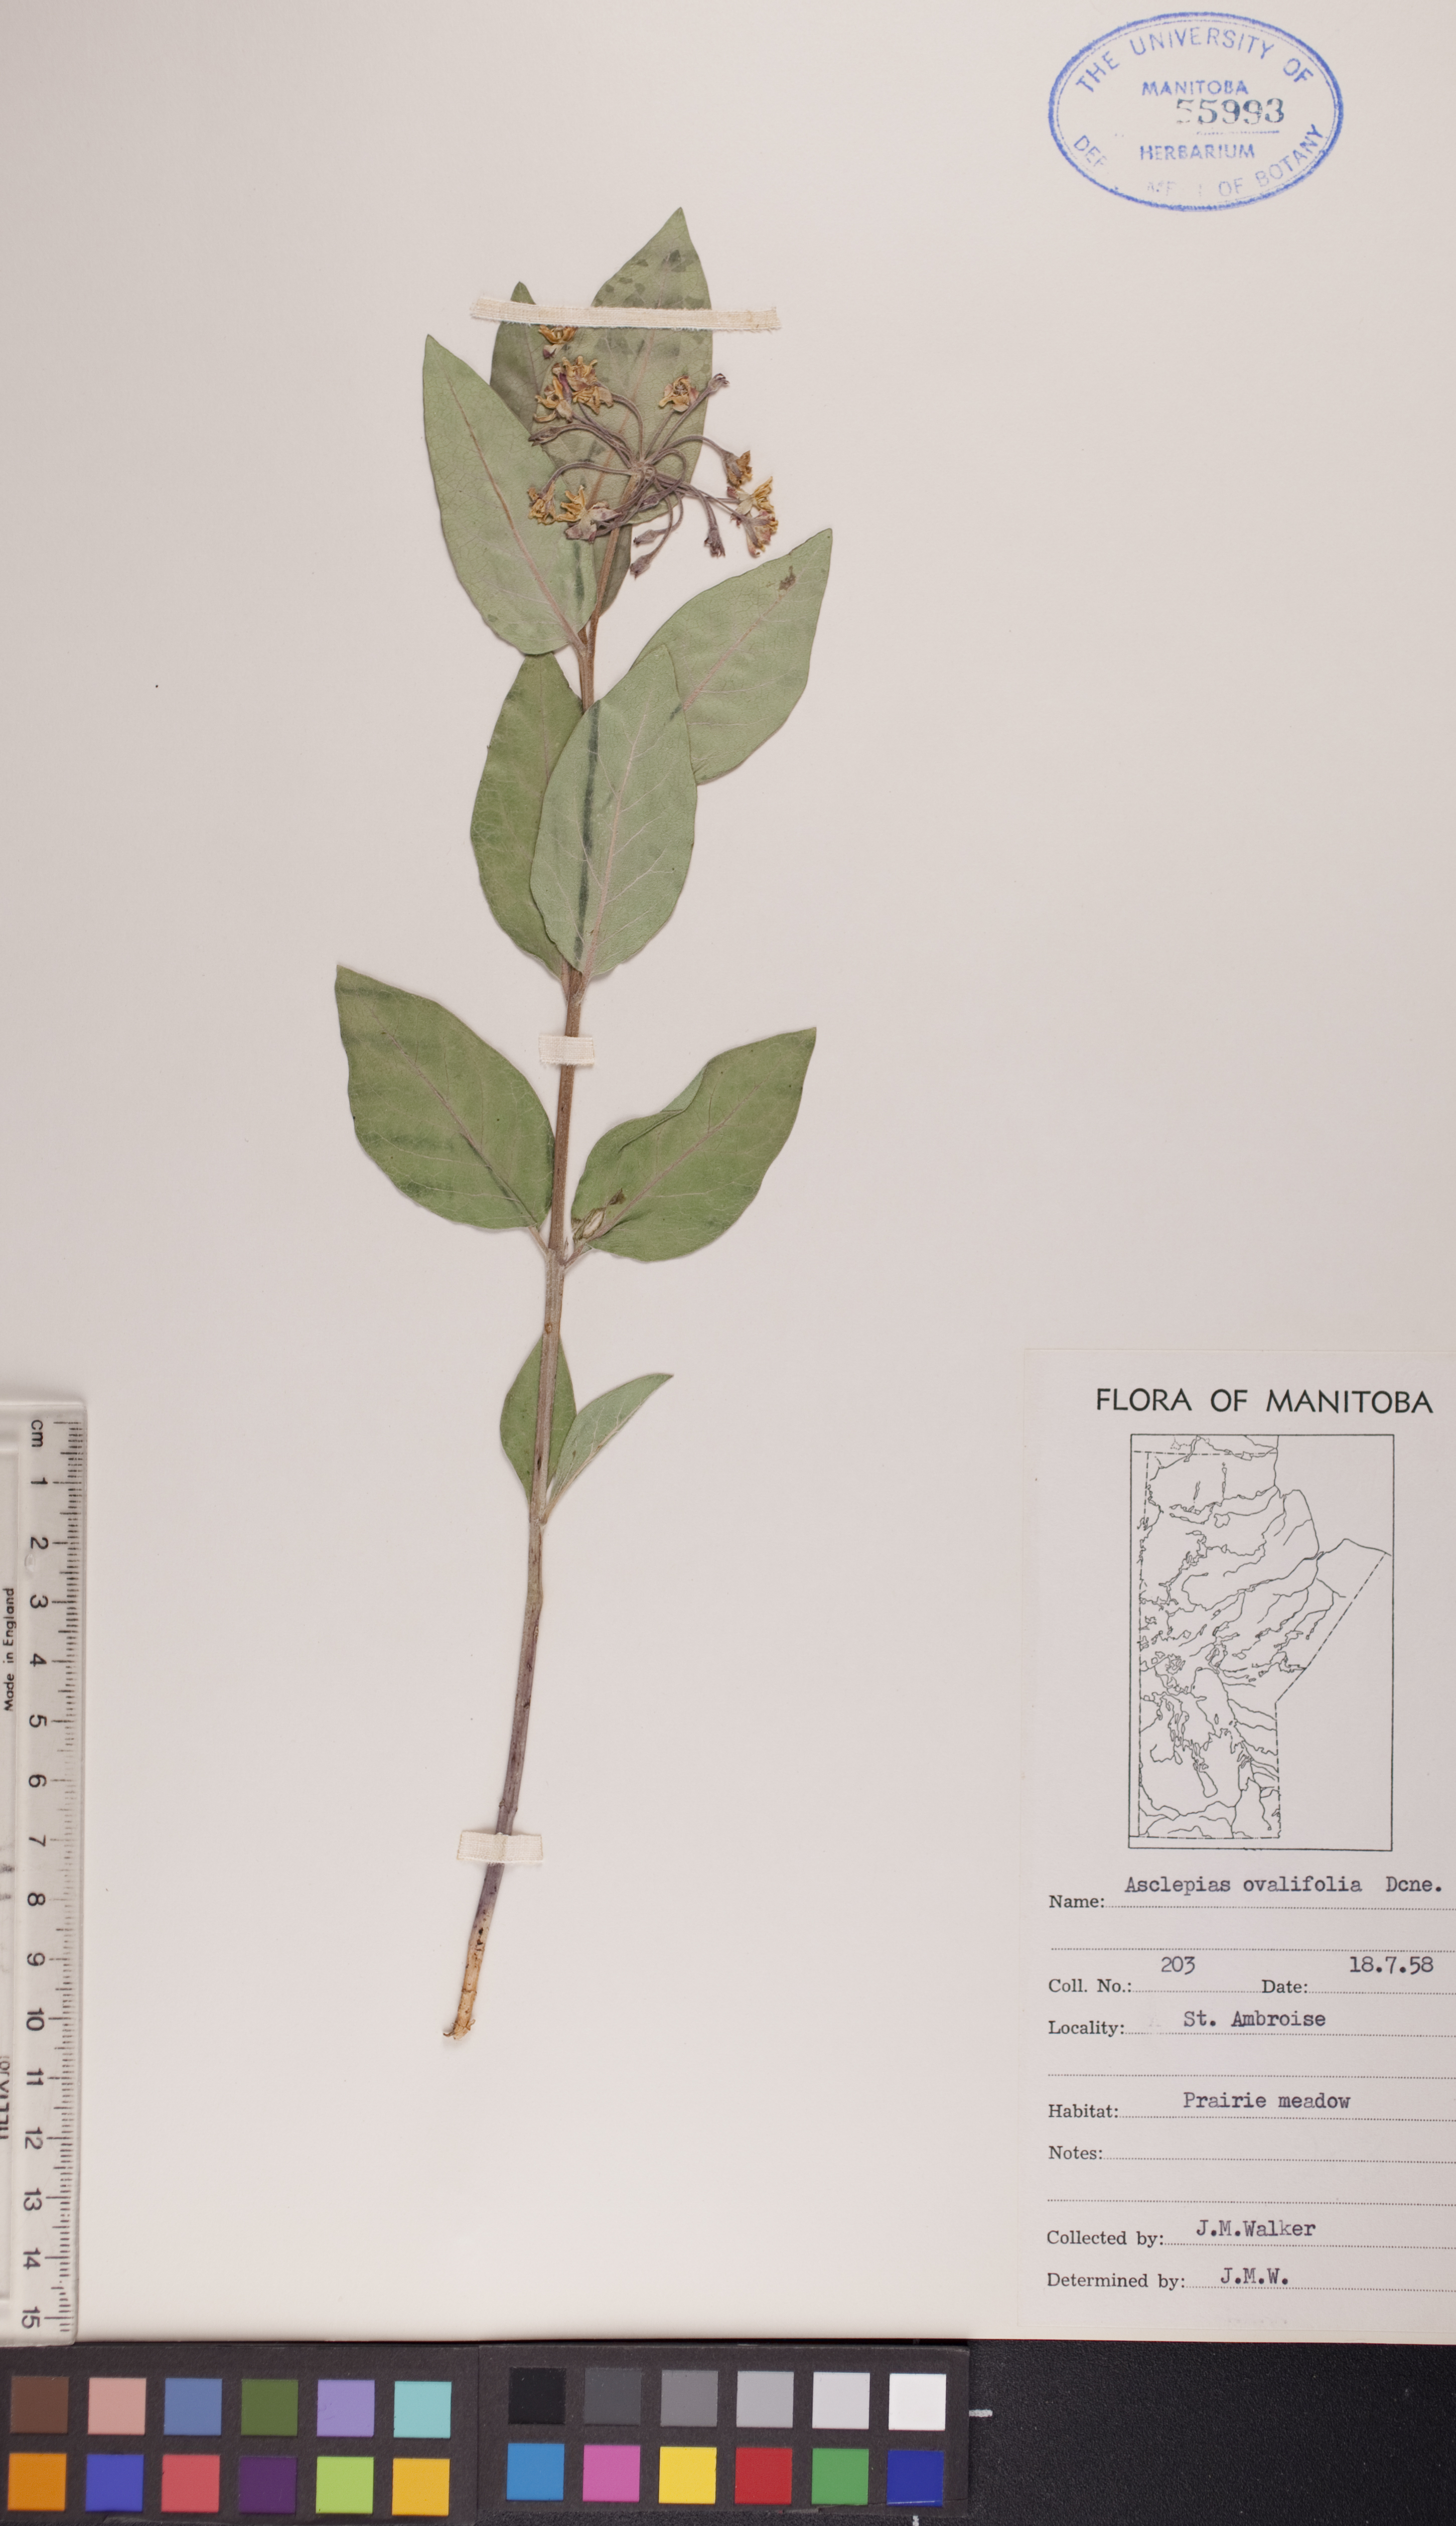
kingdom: Plantae
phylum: Tracheophyta
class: Magnoliopsida
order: Gentianales
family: Apocynaceae
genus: Asclepias
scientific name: Asclepias ovalifolia
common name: Dwarf milkweed
